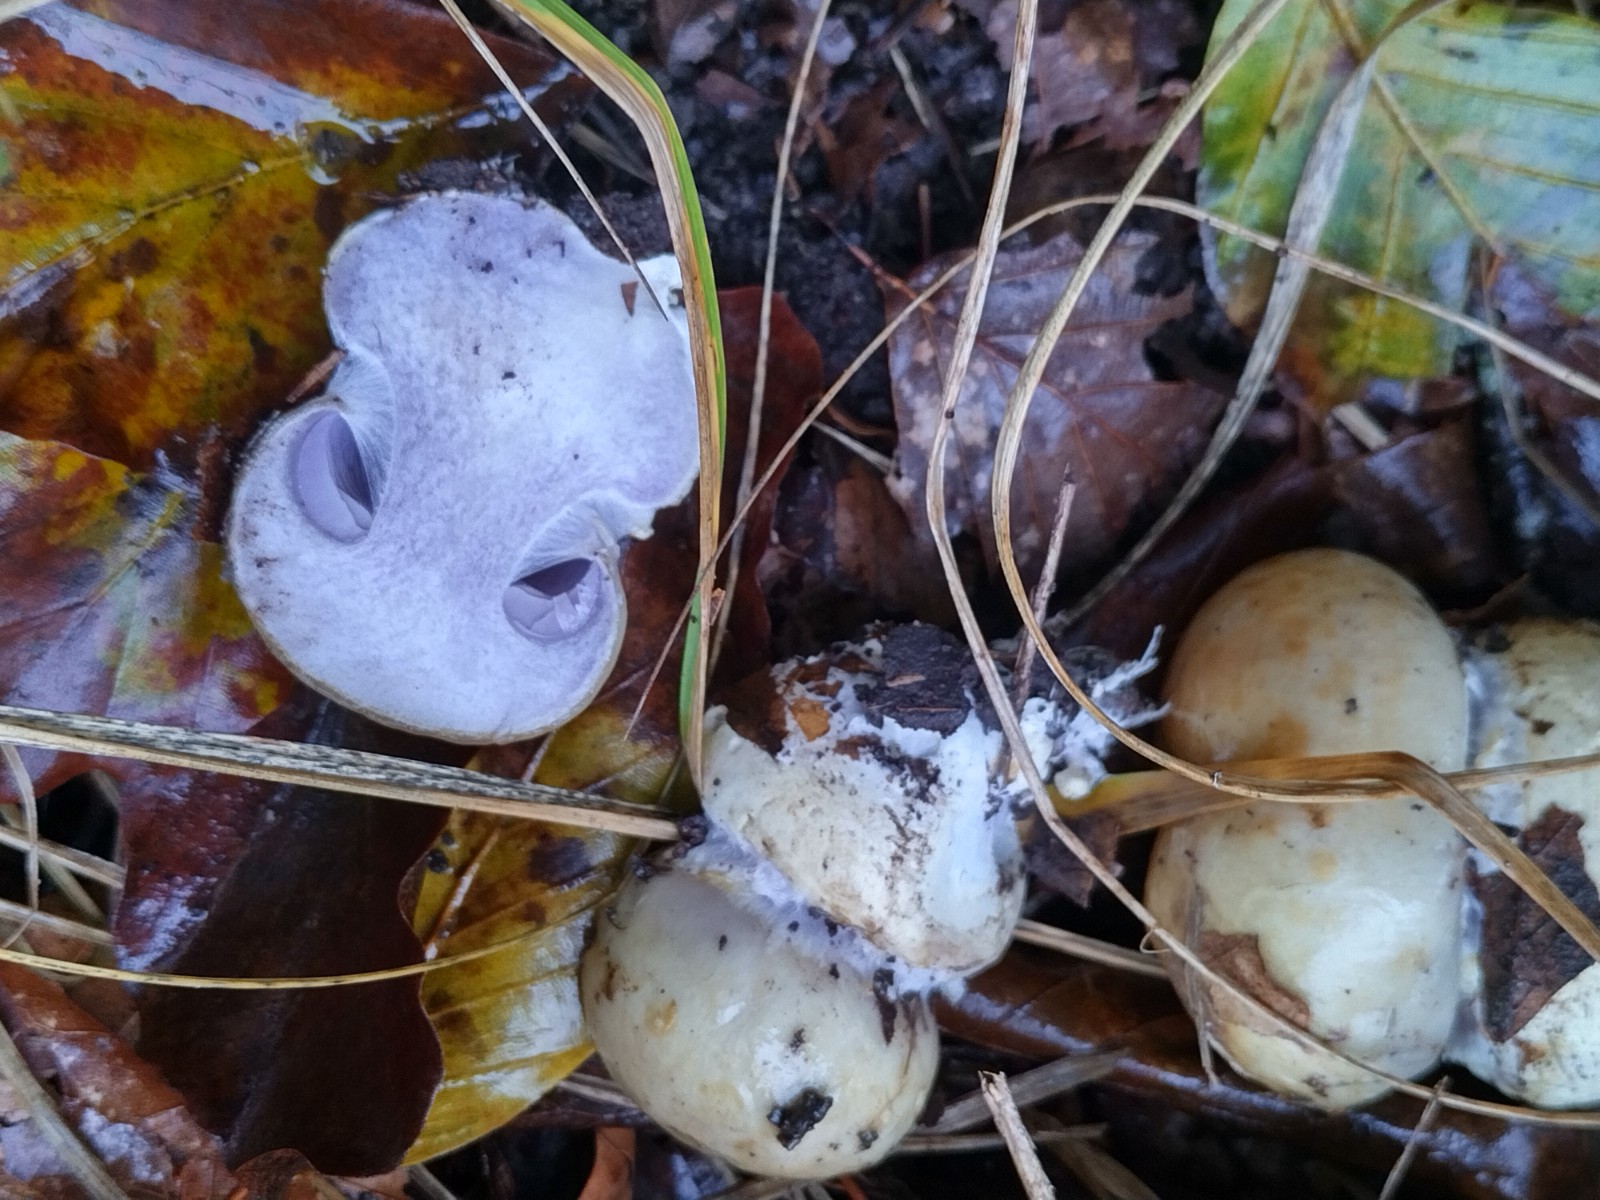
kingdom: Fungi
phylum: Basidiomycota
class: Agaricomycetes
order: Agaricales
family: Cortinariaceae
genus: Cortinarius
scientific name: Cortinarius anserinus
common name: bøge-slørhat
